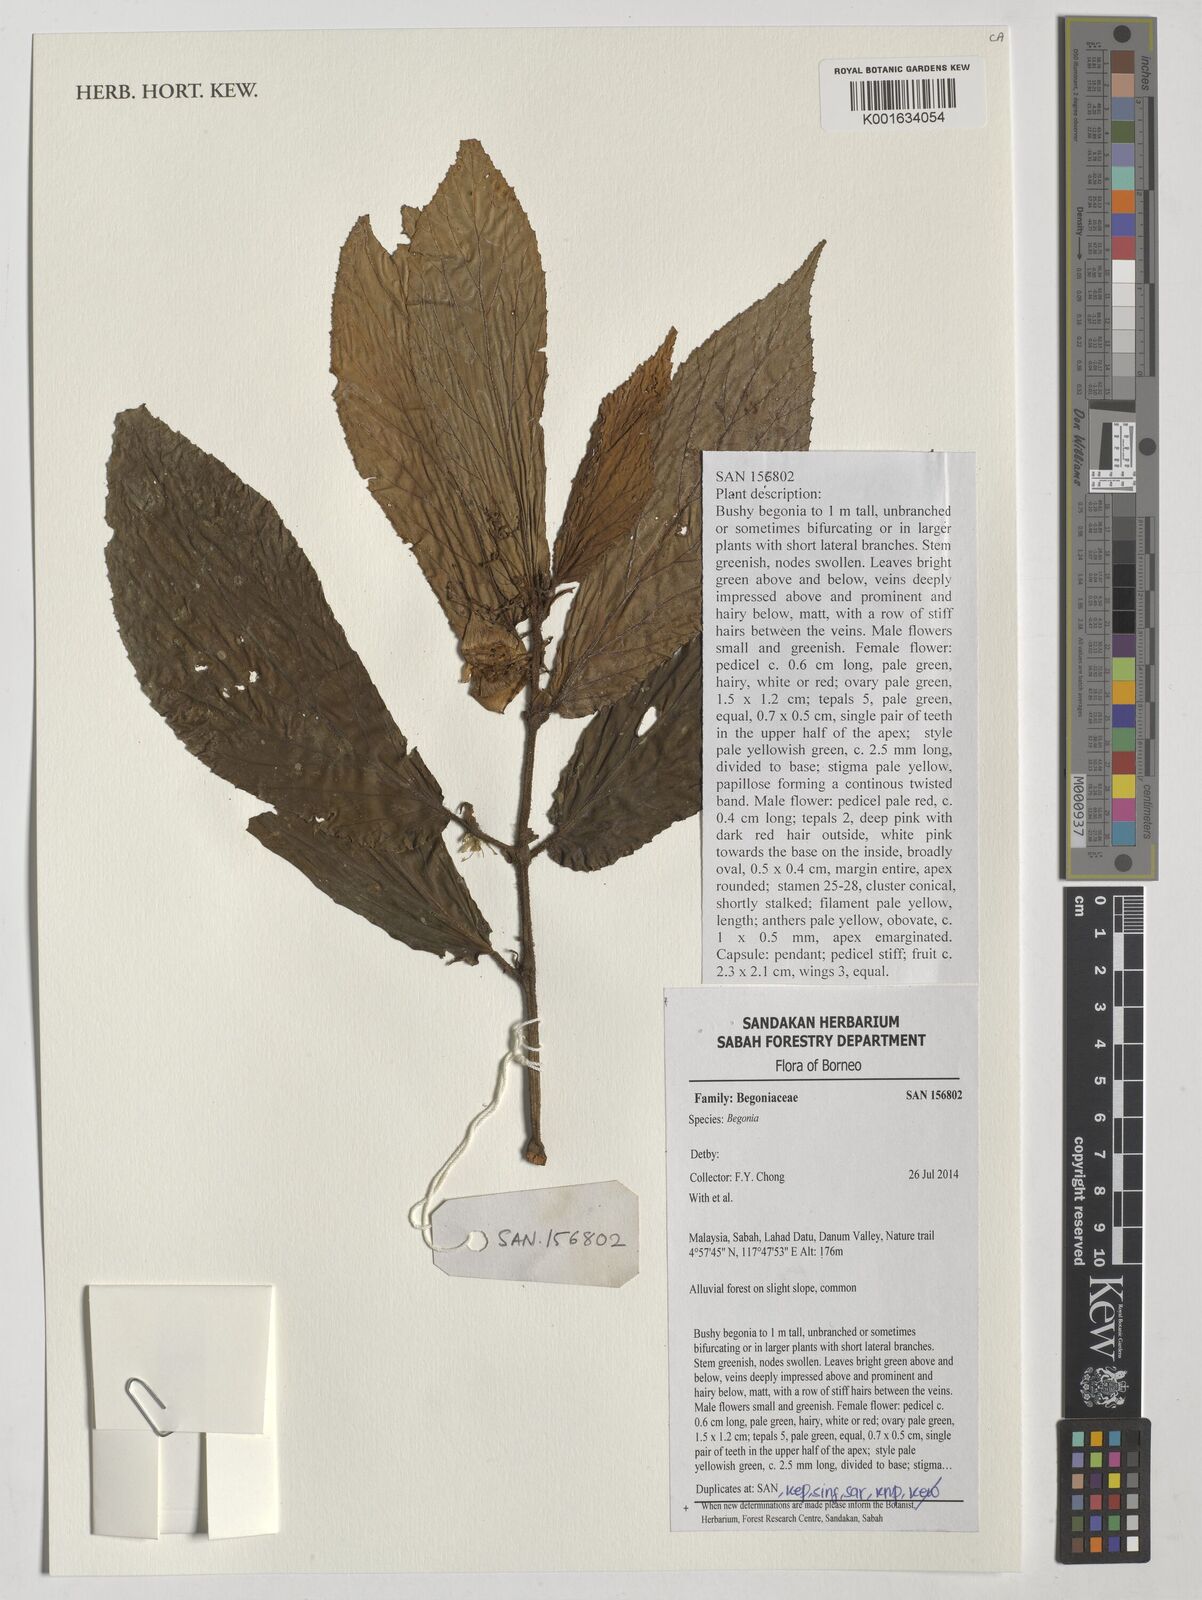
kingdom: Plantae
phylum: Tracheophyta
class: Magnoliopsida
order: Cucurbitales
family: Begoniaceae
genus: Begonia
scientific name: Begonia
